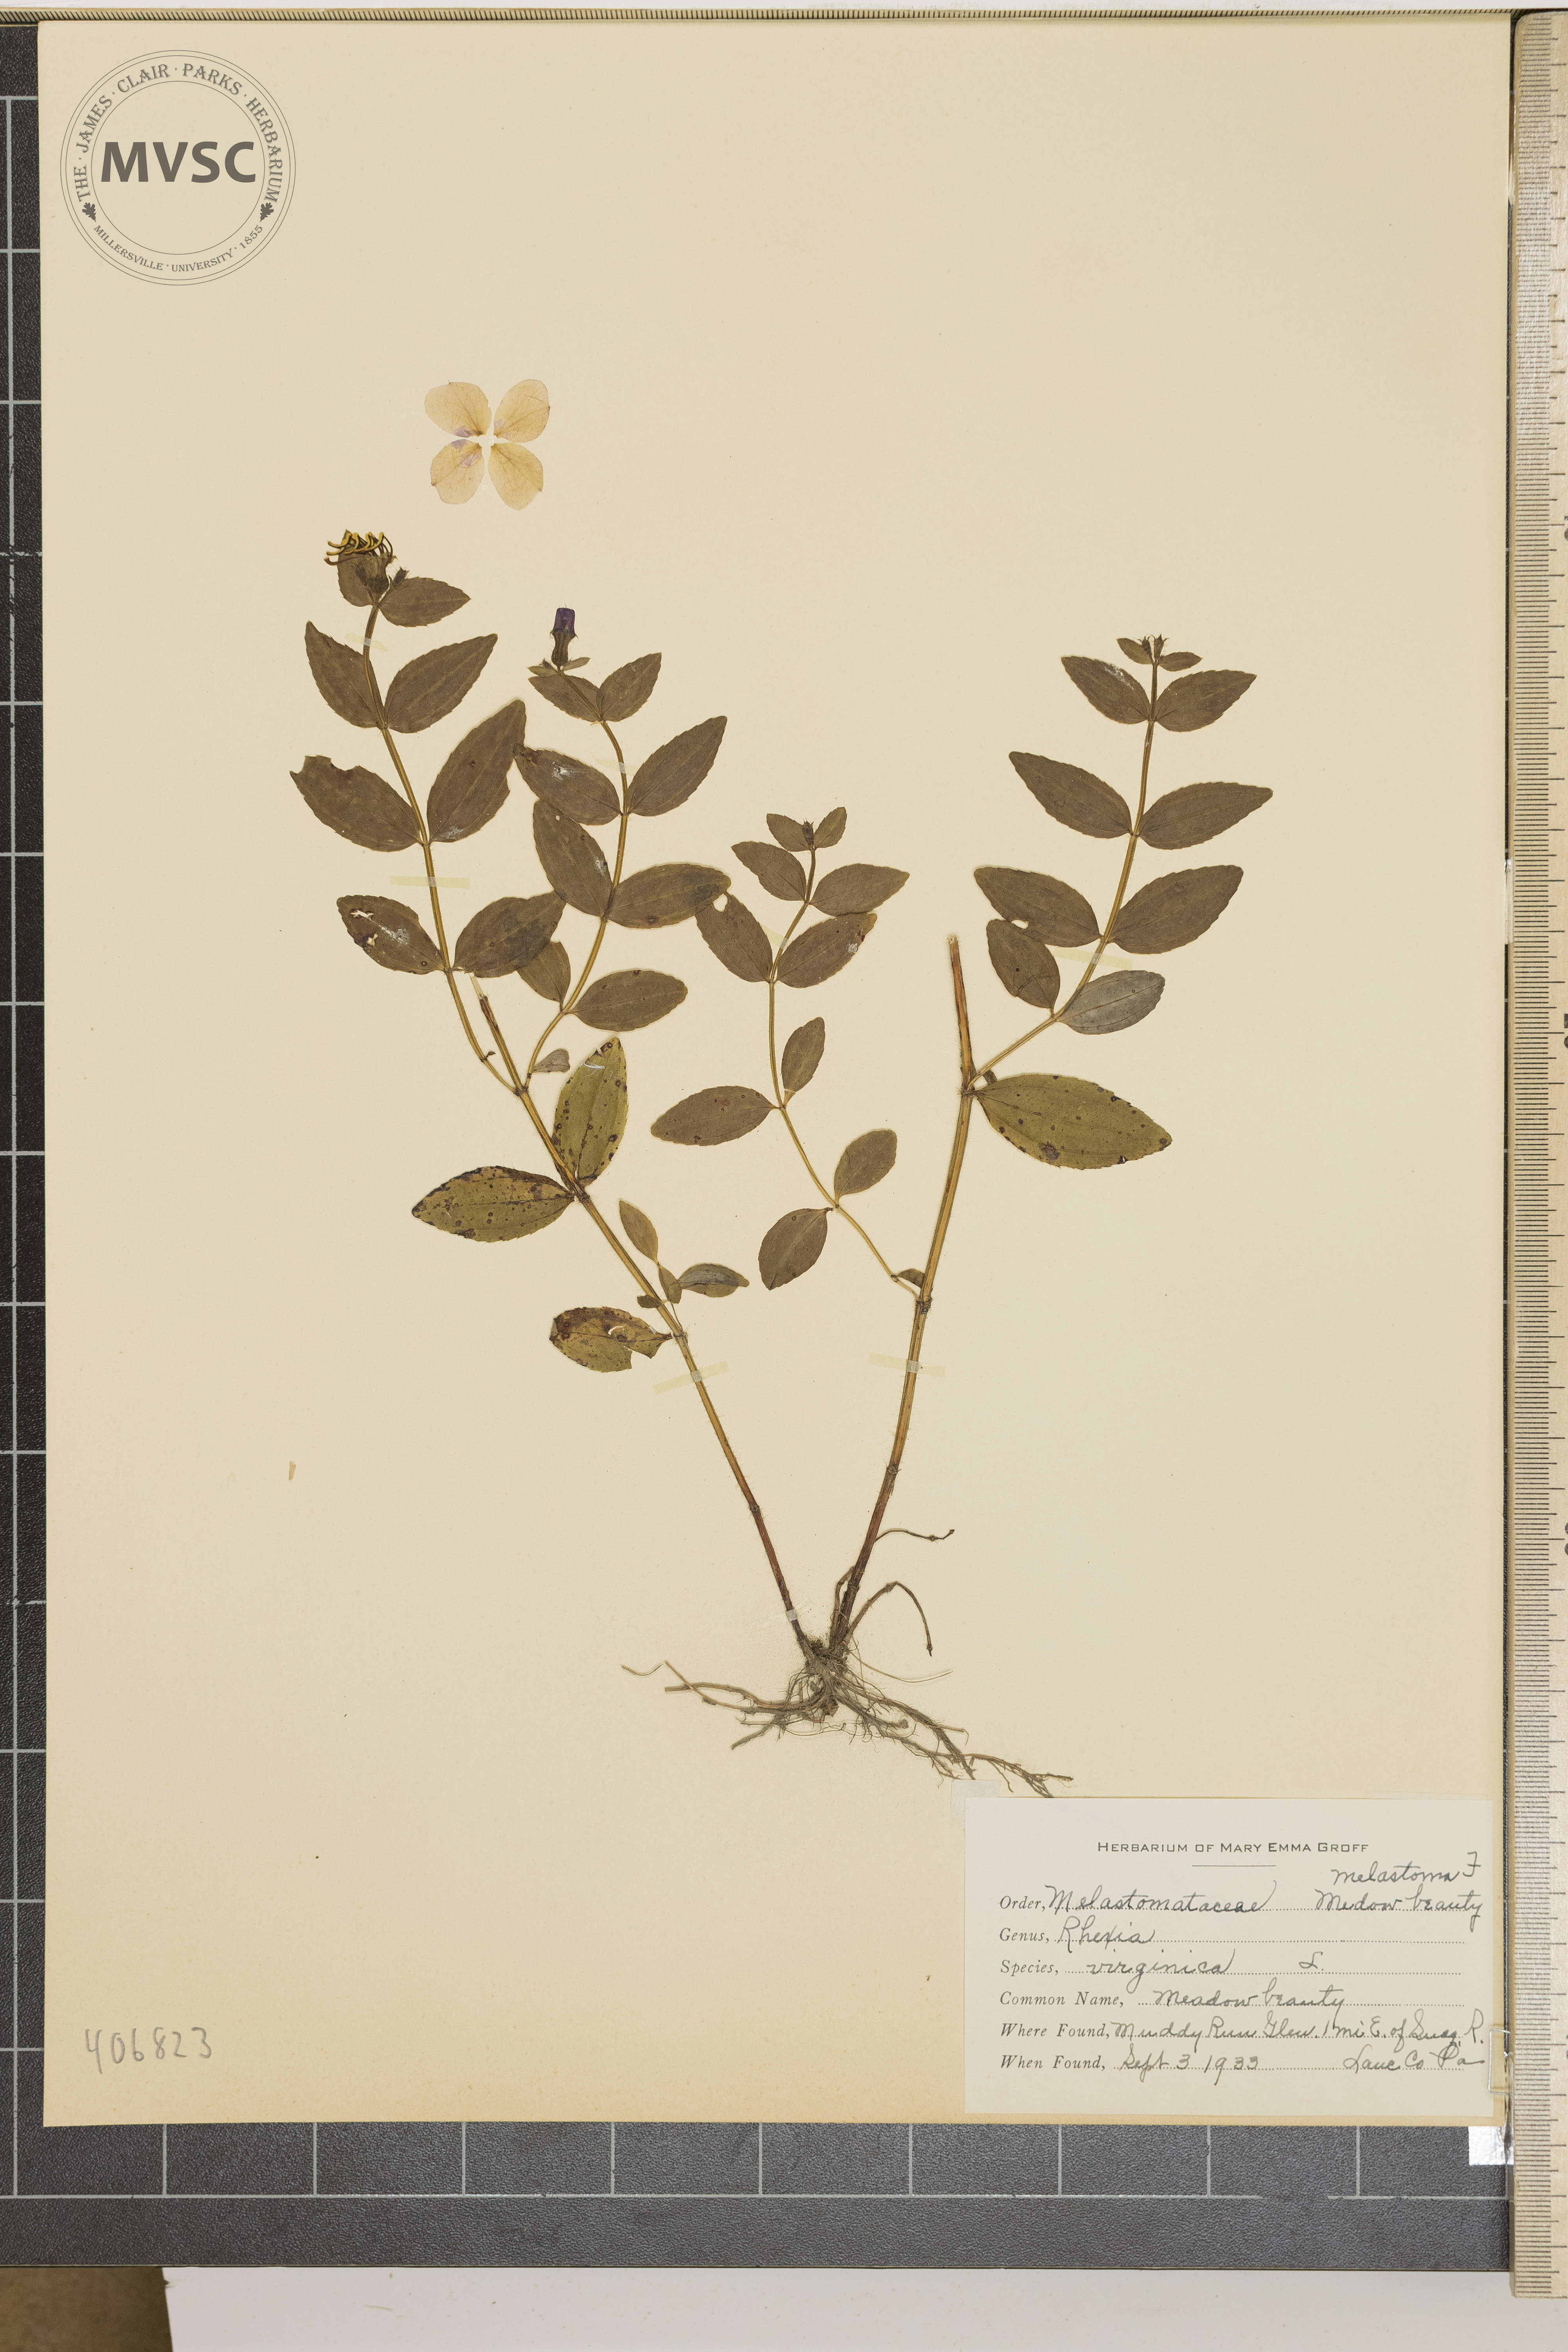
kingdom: Plantae
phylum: Tracheophyta
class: Magnoliopsida
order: Myrtales
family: Melastomataceae
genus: Rhexia
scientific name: Rhexia virginica
